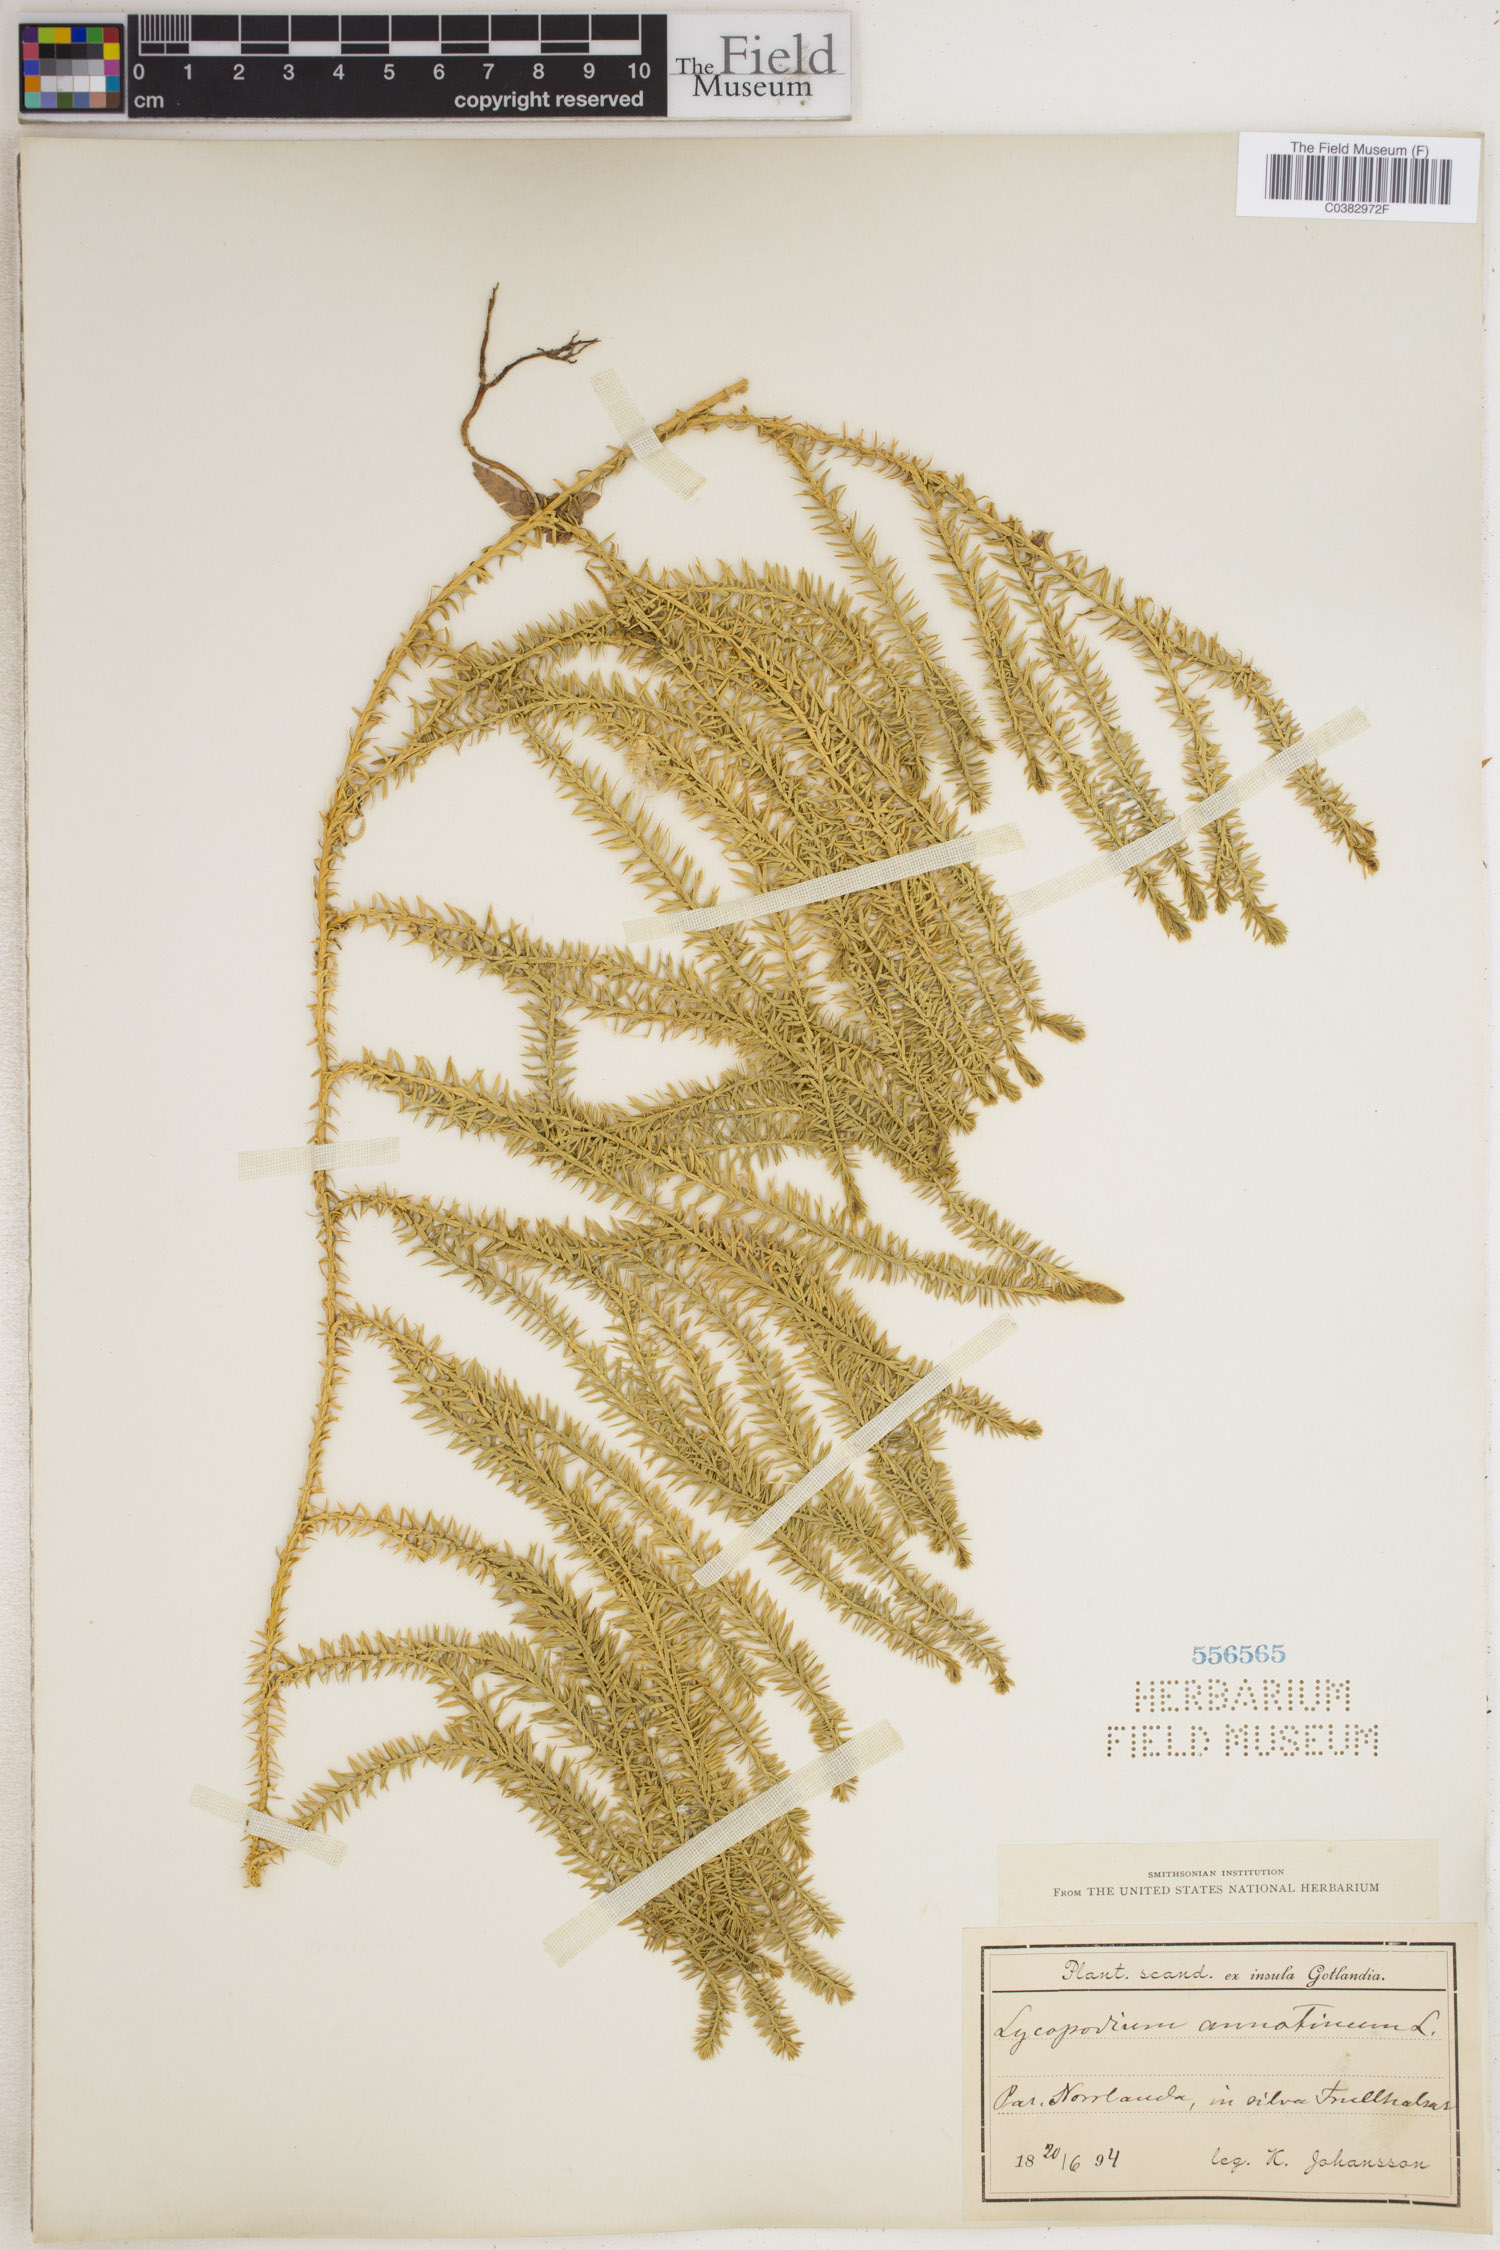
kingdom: Plantae
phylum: Tracheophyta
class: Lycopodiopsida
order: Lycopodiales
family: Lycopodiaceae
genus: Spinulum
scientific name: Spinulum annotinum
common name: Interrupted club-moss
